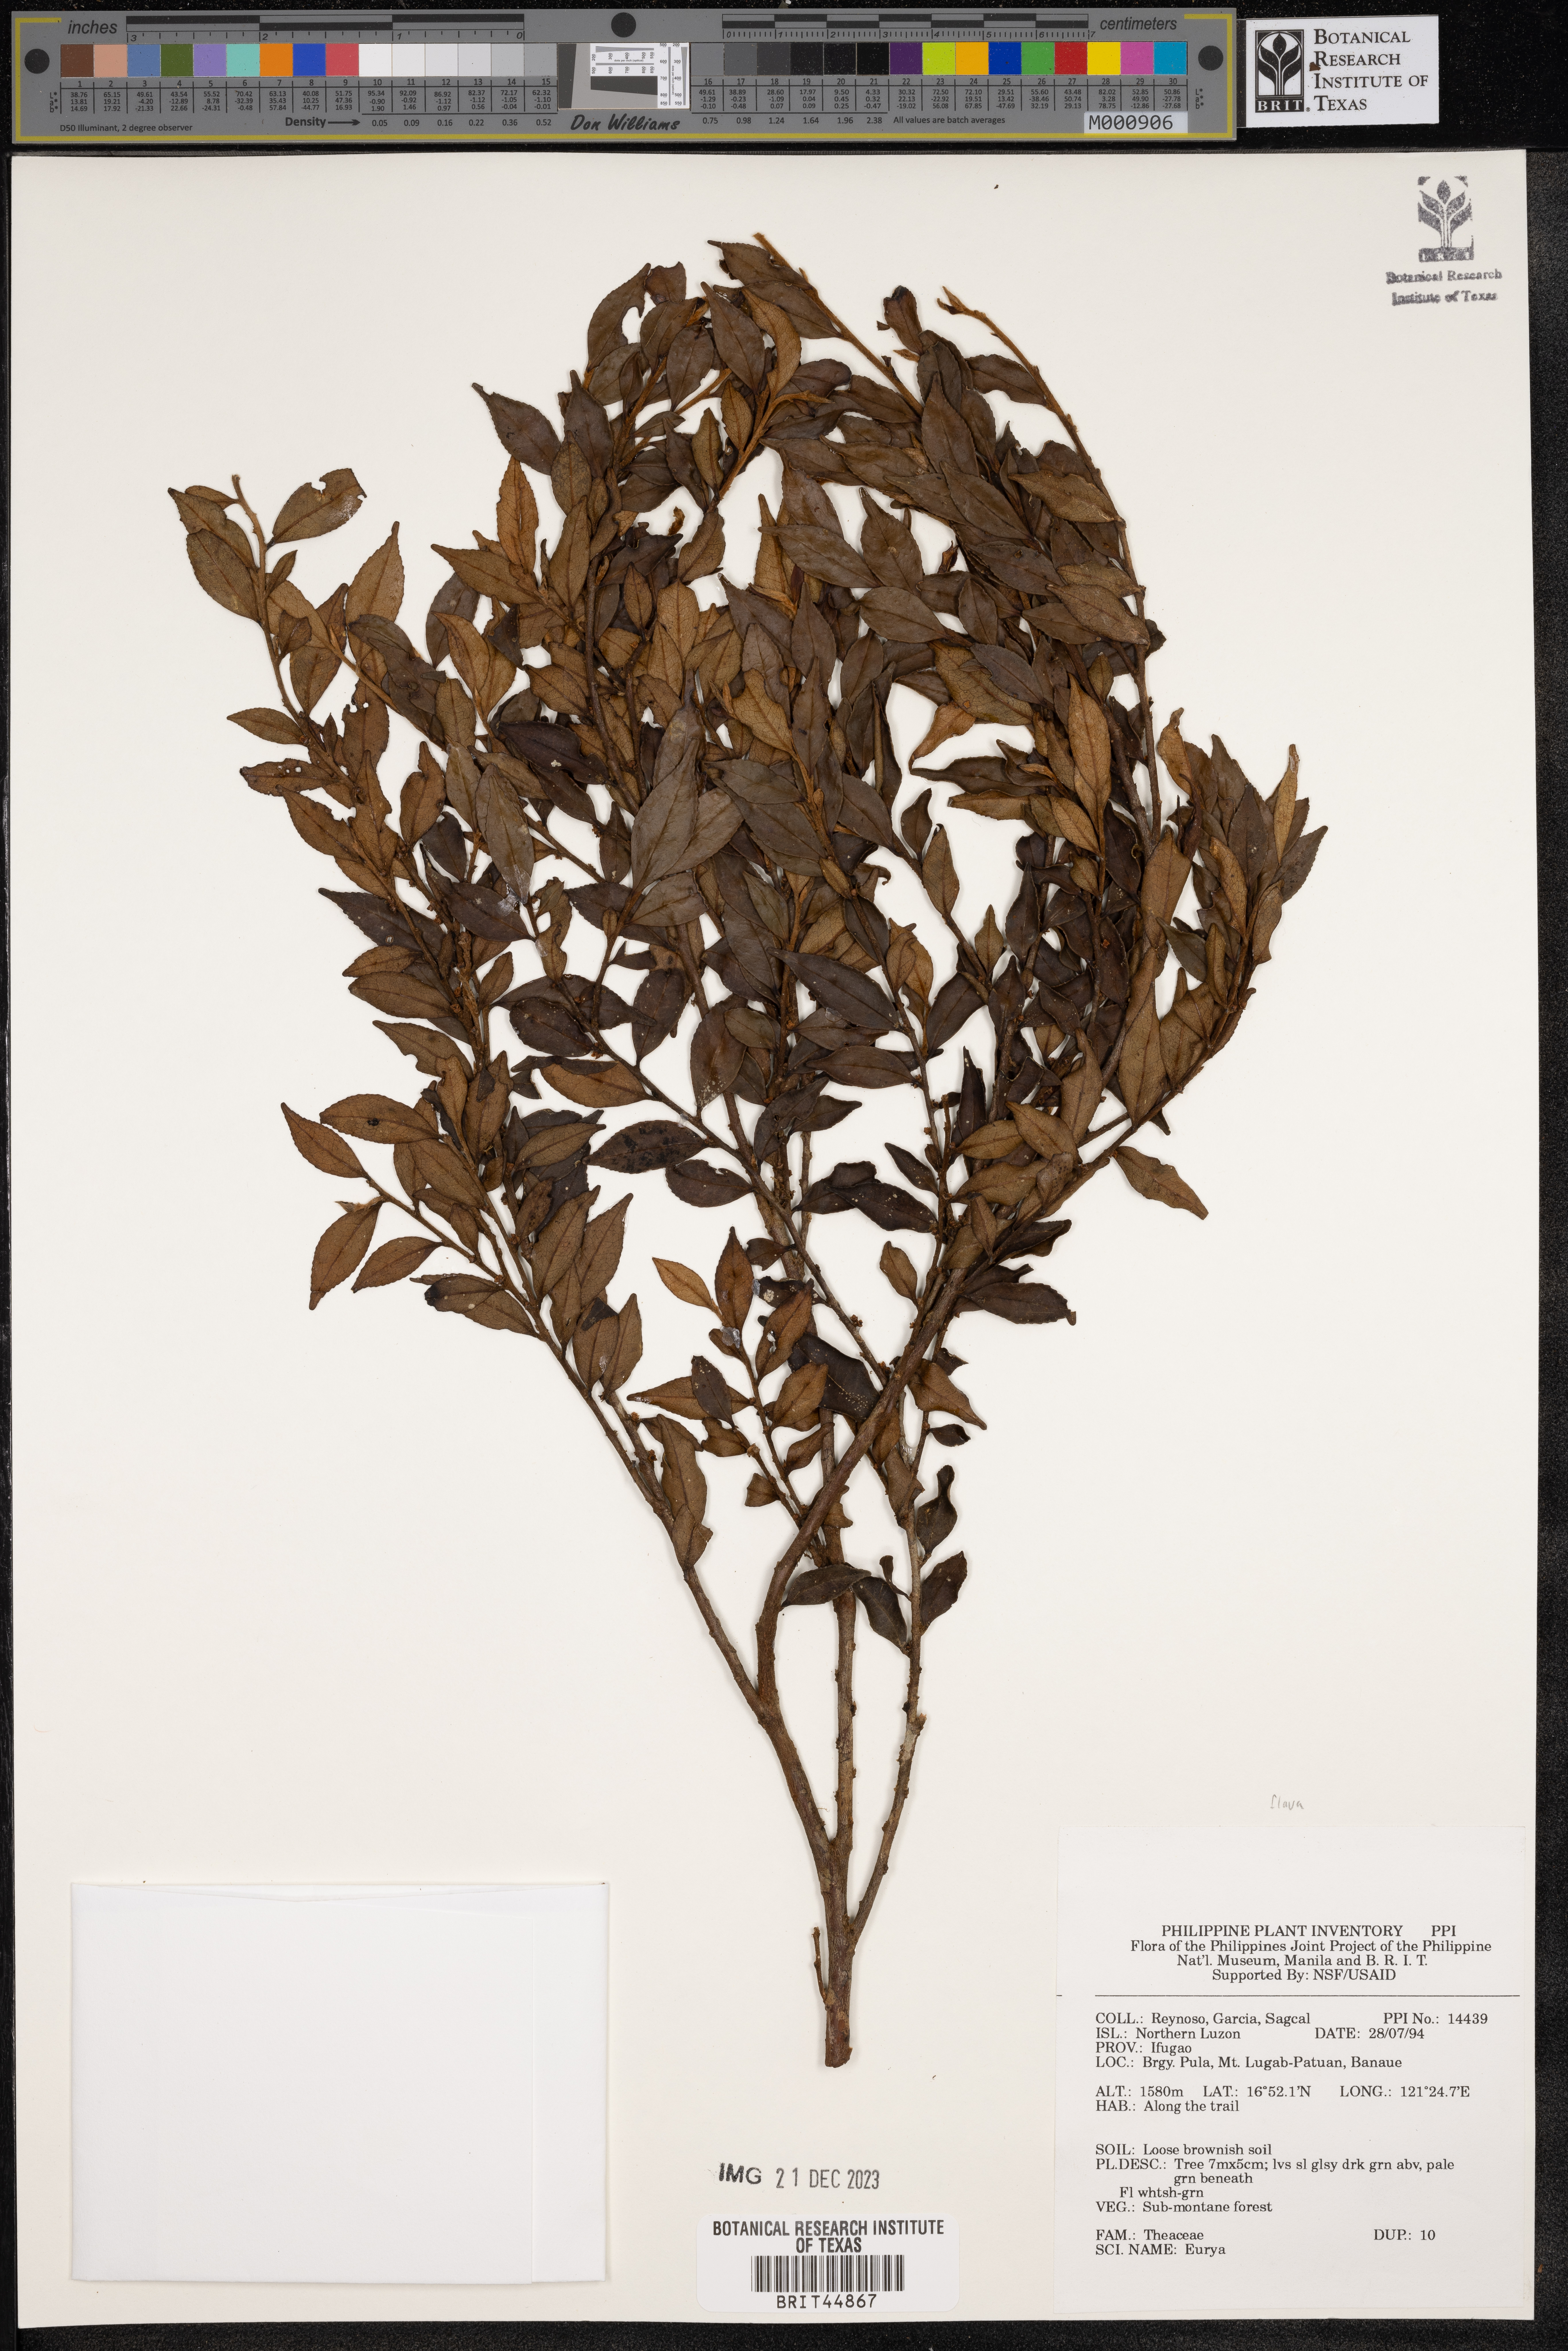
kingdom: Plantae
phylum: Tracheophyta
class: Magnoliopsida
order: Ericales
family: Pentaphylacaceae
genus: Eurya
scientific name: Eurya
